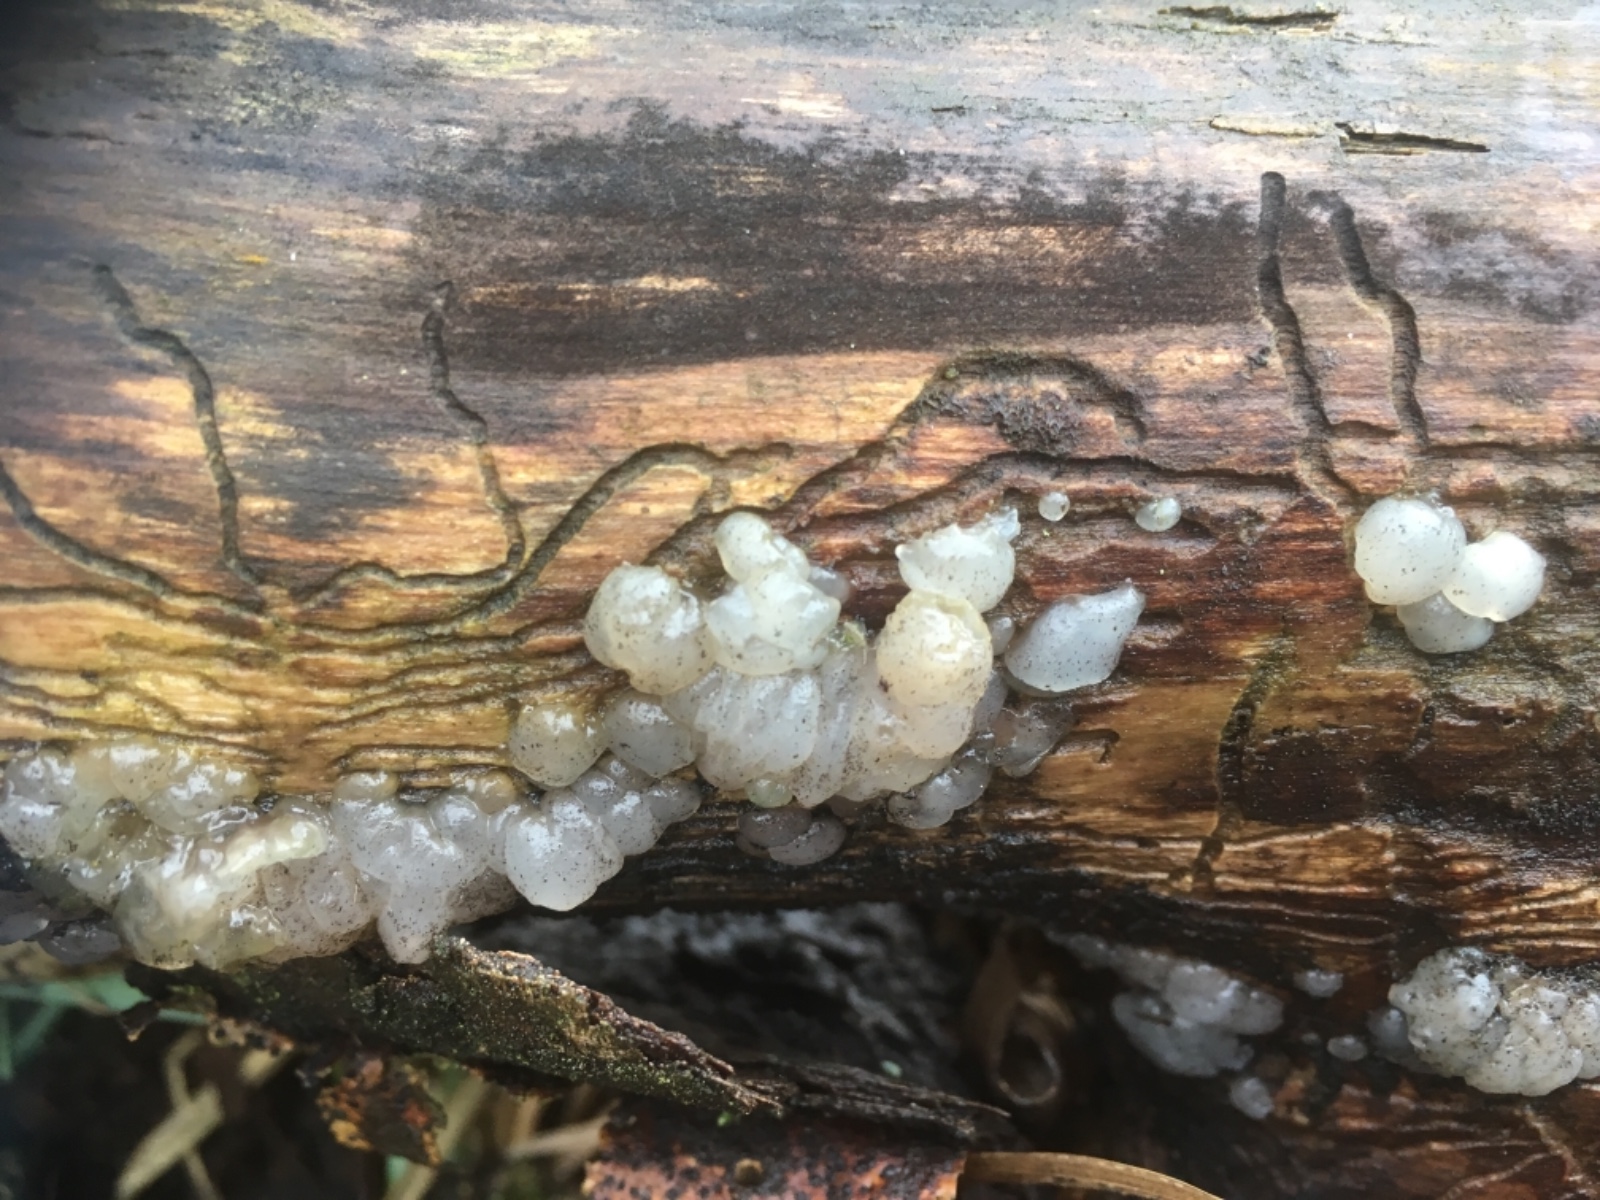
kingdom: Fungi
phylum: Basidiomycota
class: Agaricomycetes
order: Auriculariales
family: Hyaloriaceae
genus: Myxarium
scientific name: Myxarium nucleatum
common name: klar bævretop
